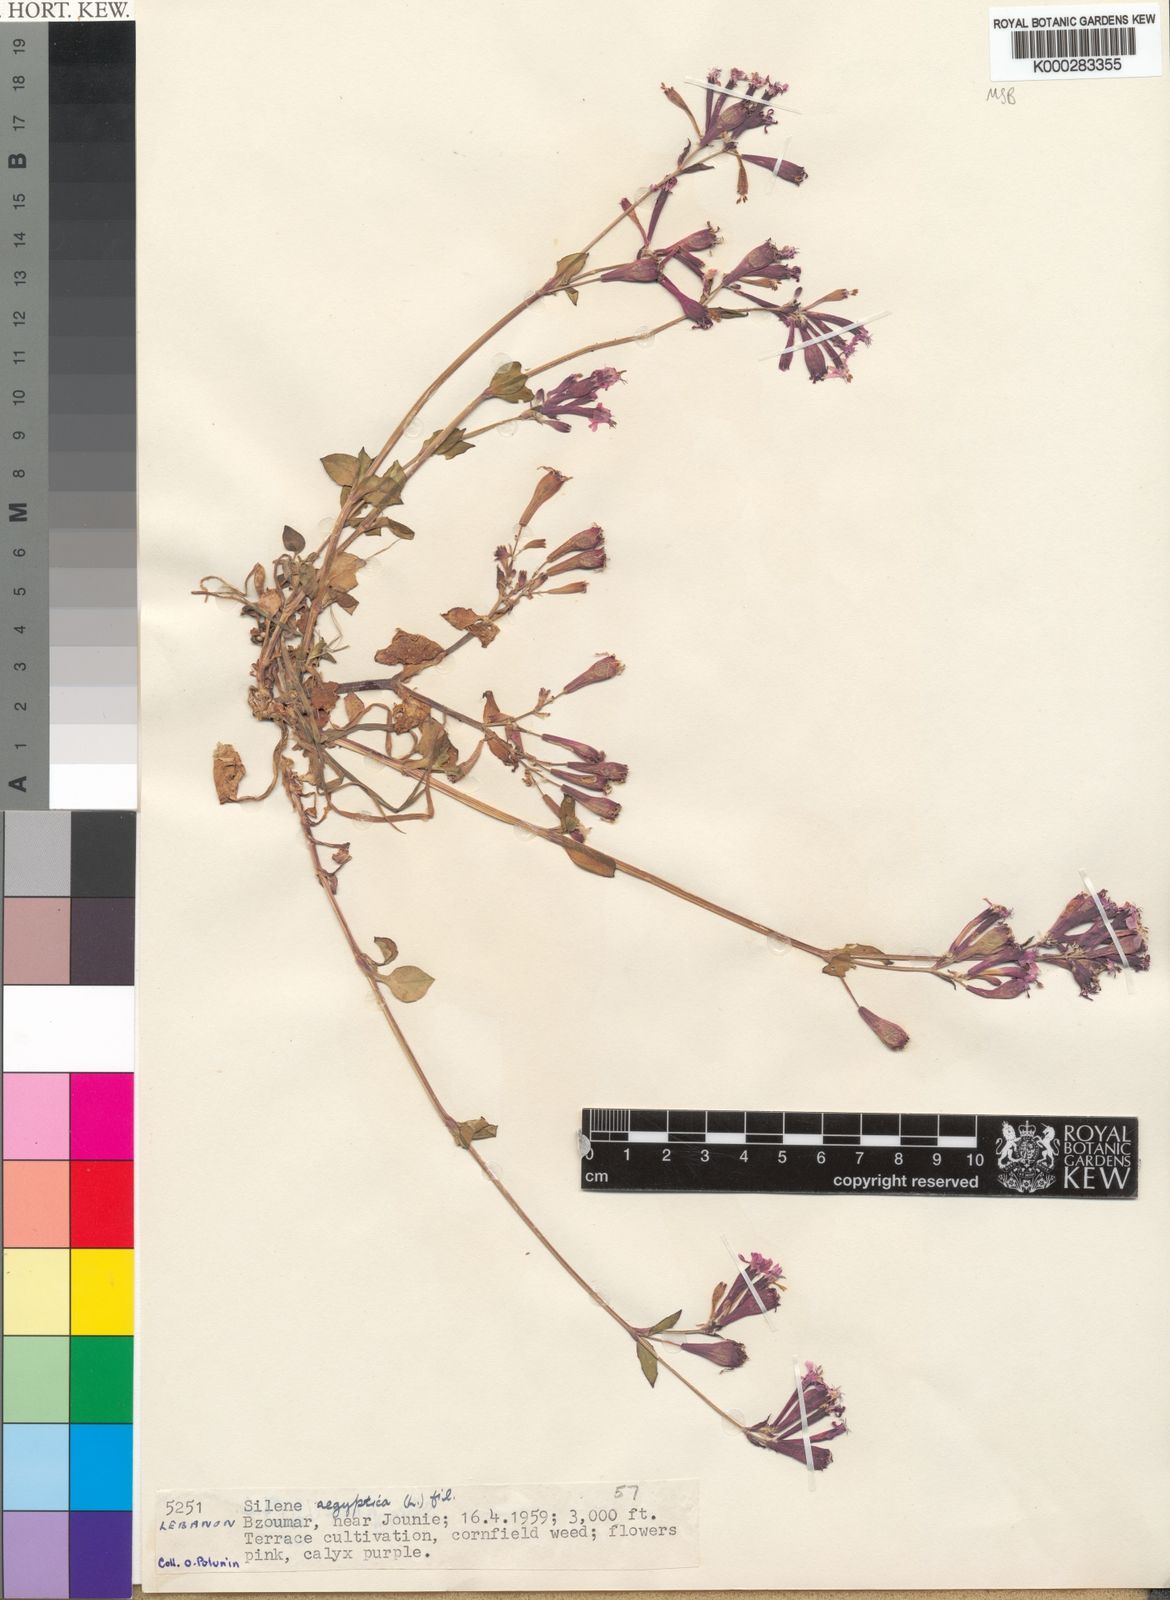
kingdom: Plantae
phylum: Tracheophyta
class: Magnoliopsida
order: Caryophyllales
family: Caryophyllaceae
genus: Silene
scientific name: Silene aegyptiaca
